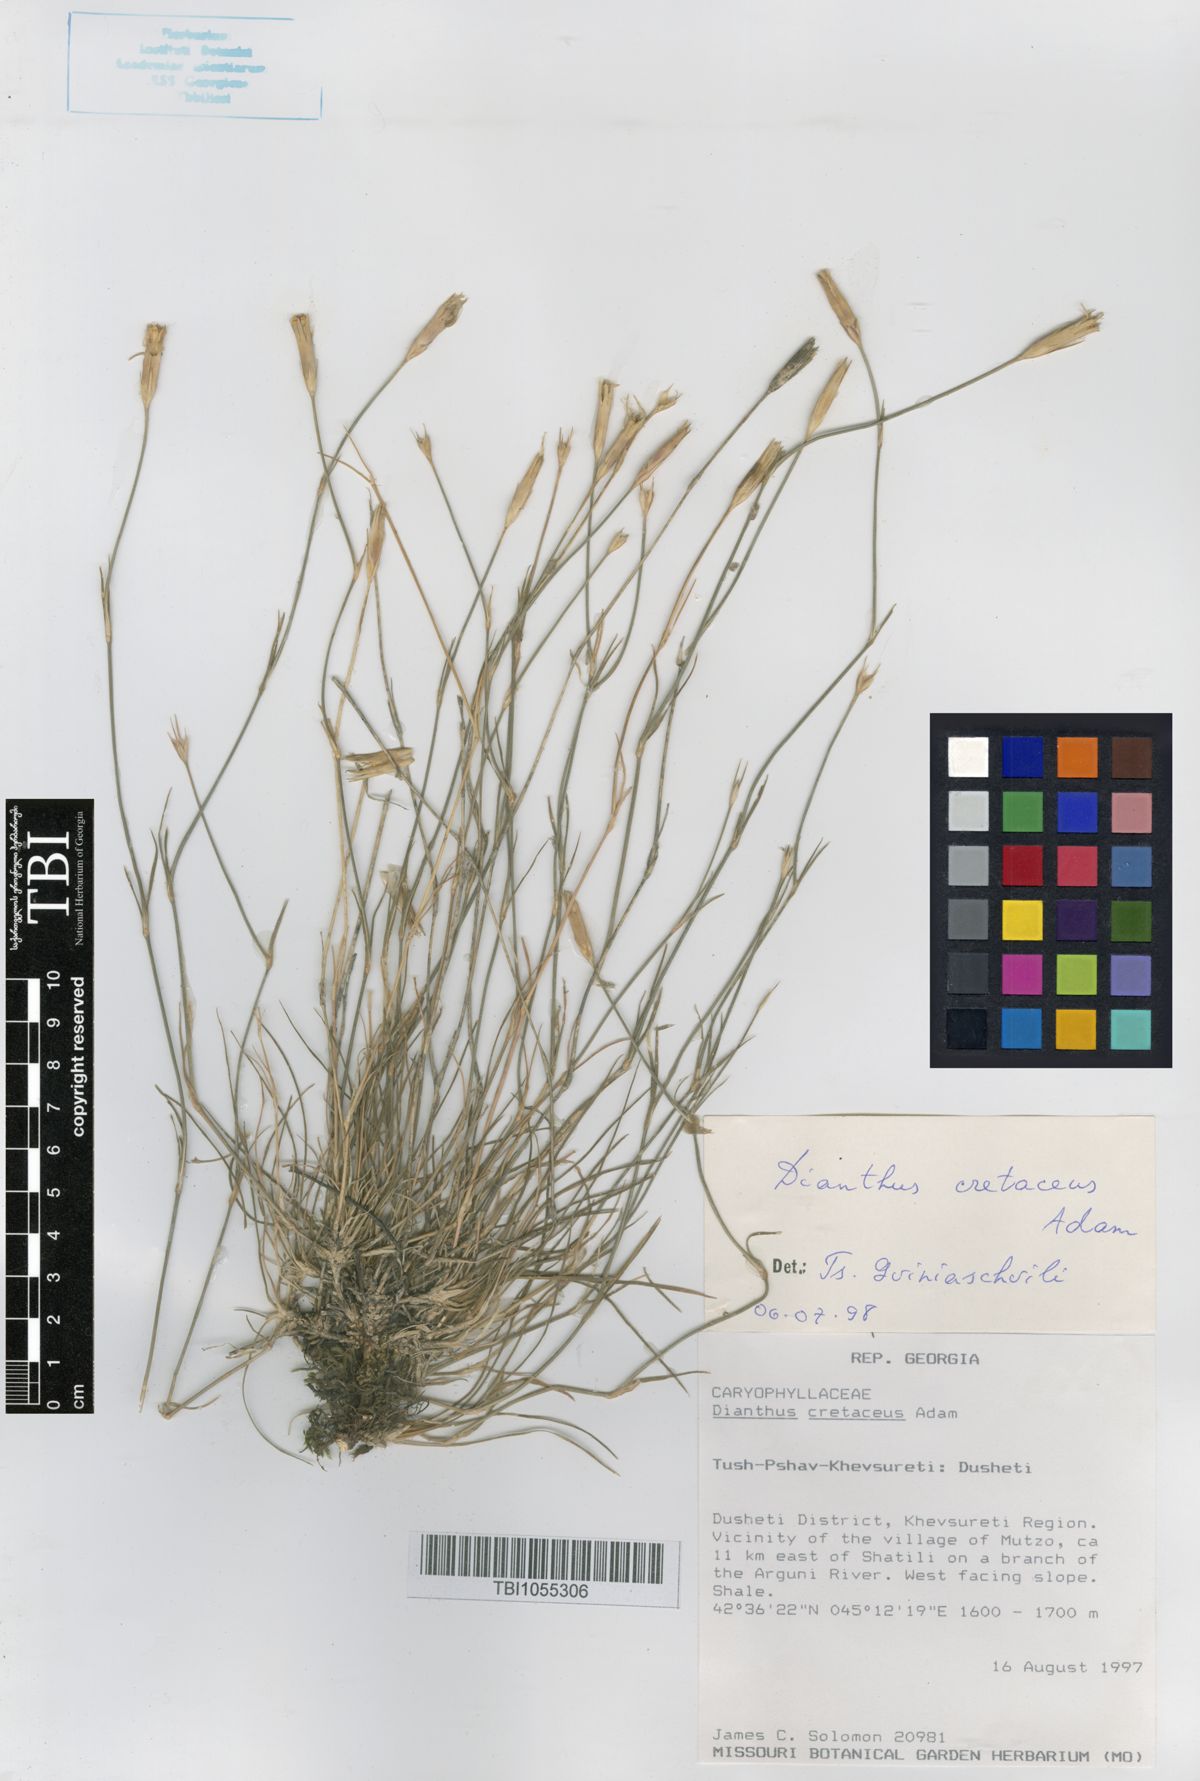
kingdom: Plantae
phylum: Tracheophyta
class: Magnoliopsida
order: Caryophyllales
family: Caryophyllaceae
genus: Dianthus
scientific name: Dianthus cretaceus
